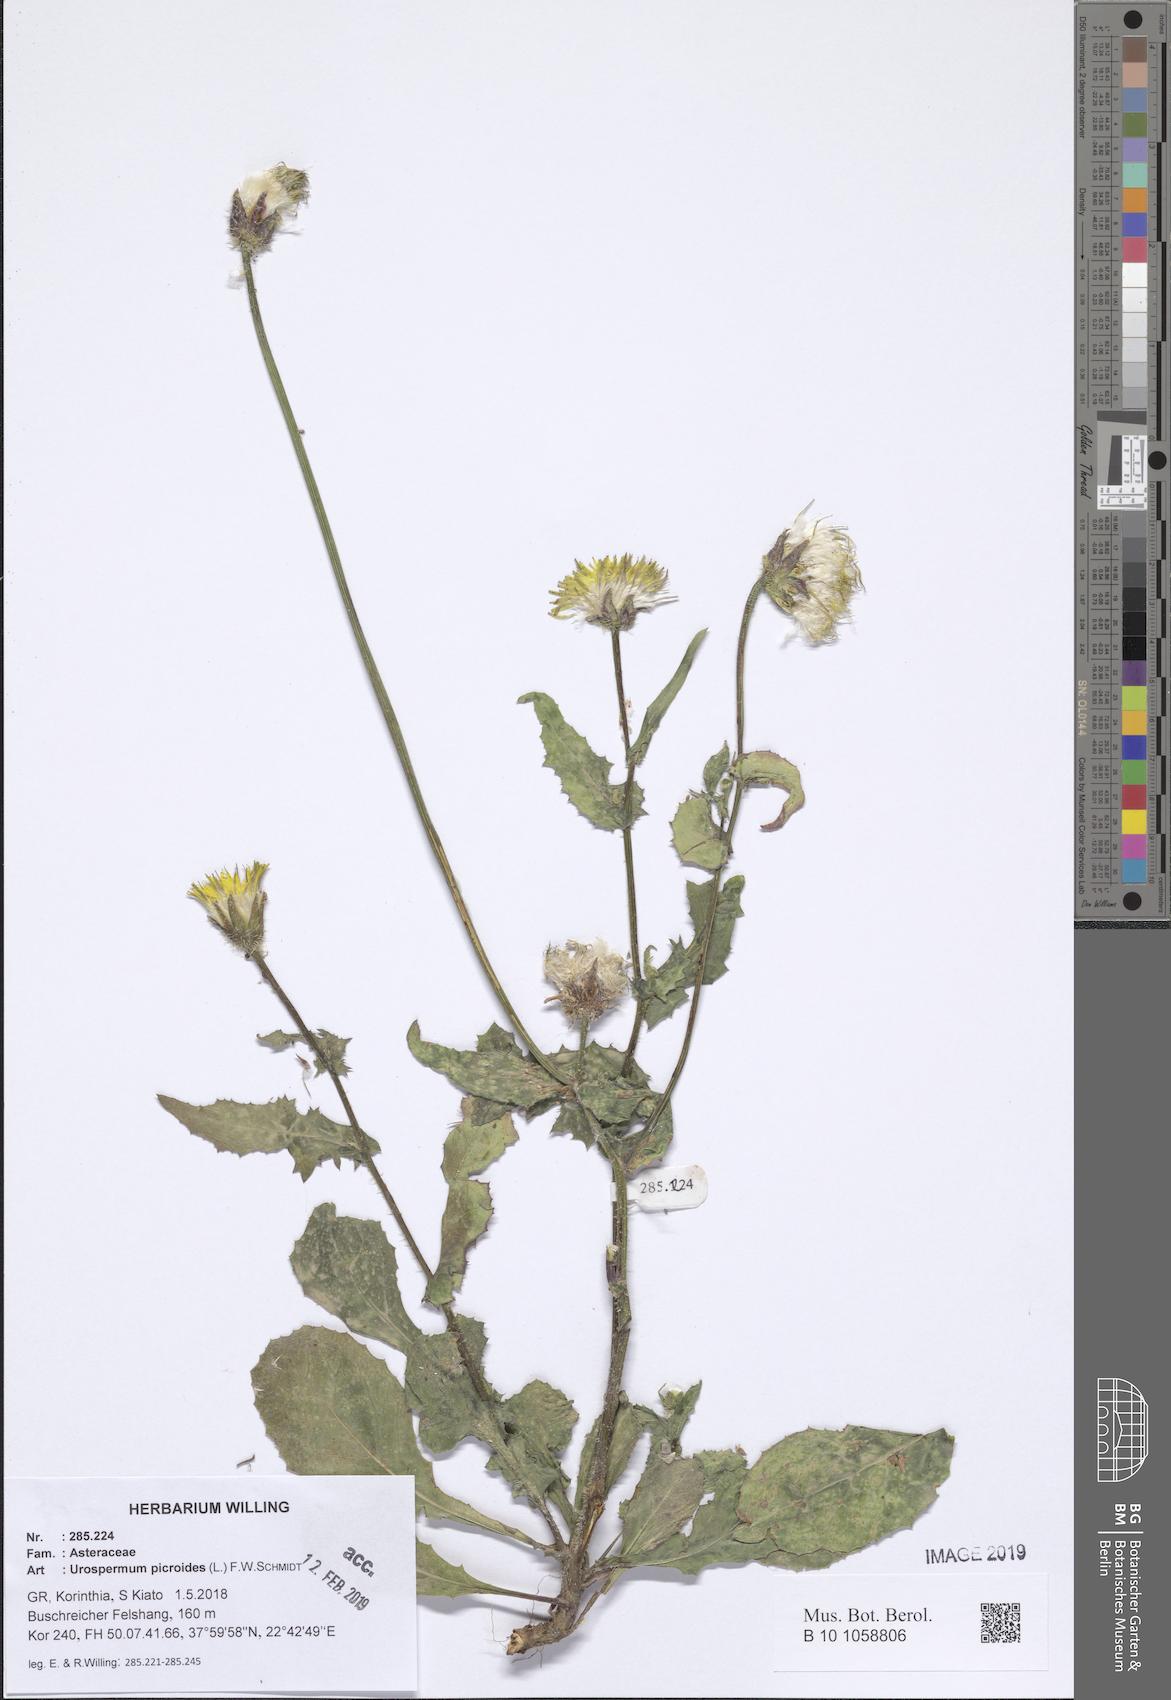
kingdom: Plantae
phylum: Tracheophyta
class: Magnoliopsida
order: Asterales
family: Asteraceae
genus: Urospermum
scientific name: Urospermum picroides
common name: False hawkbit
